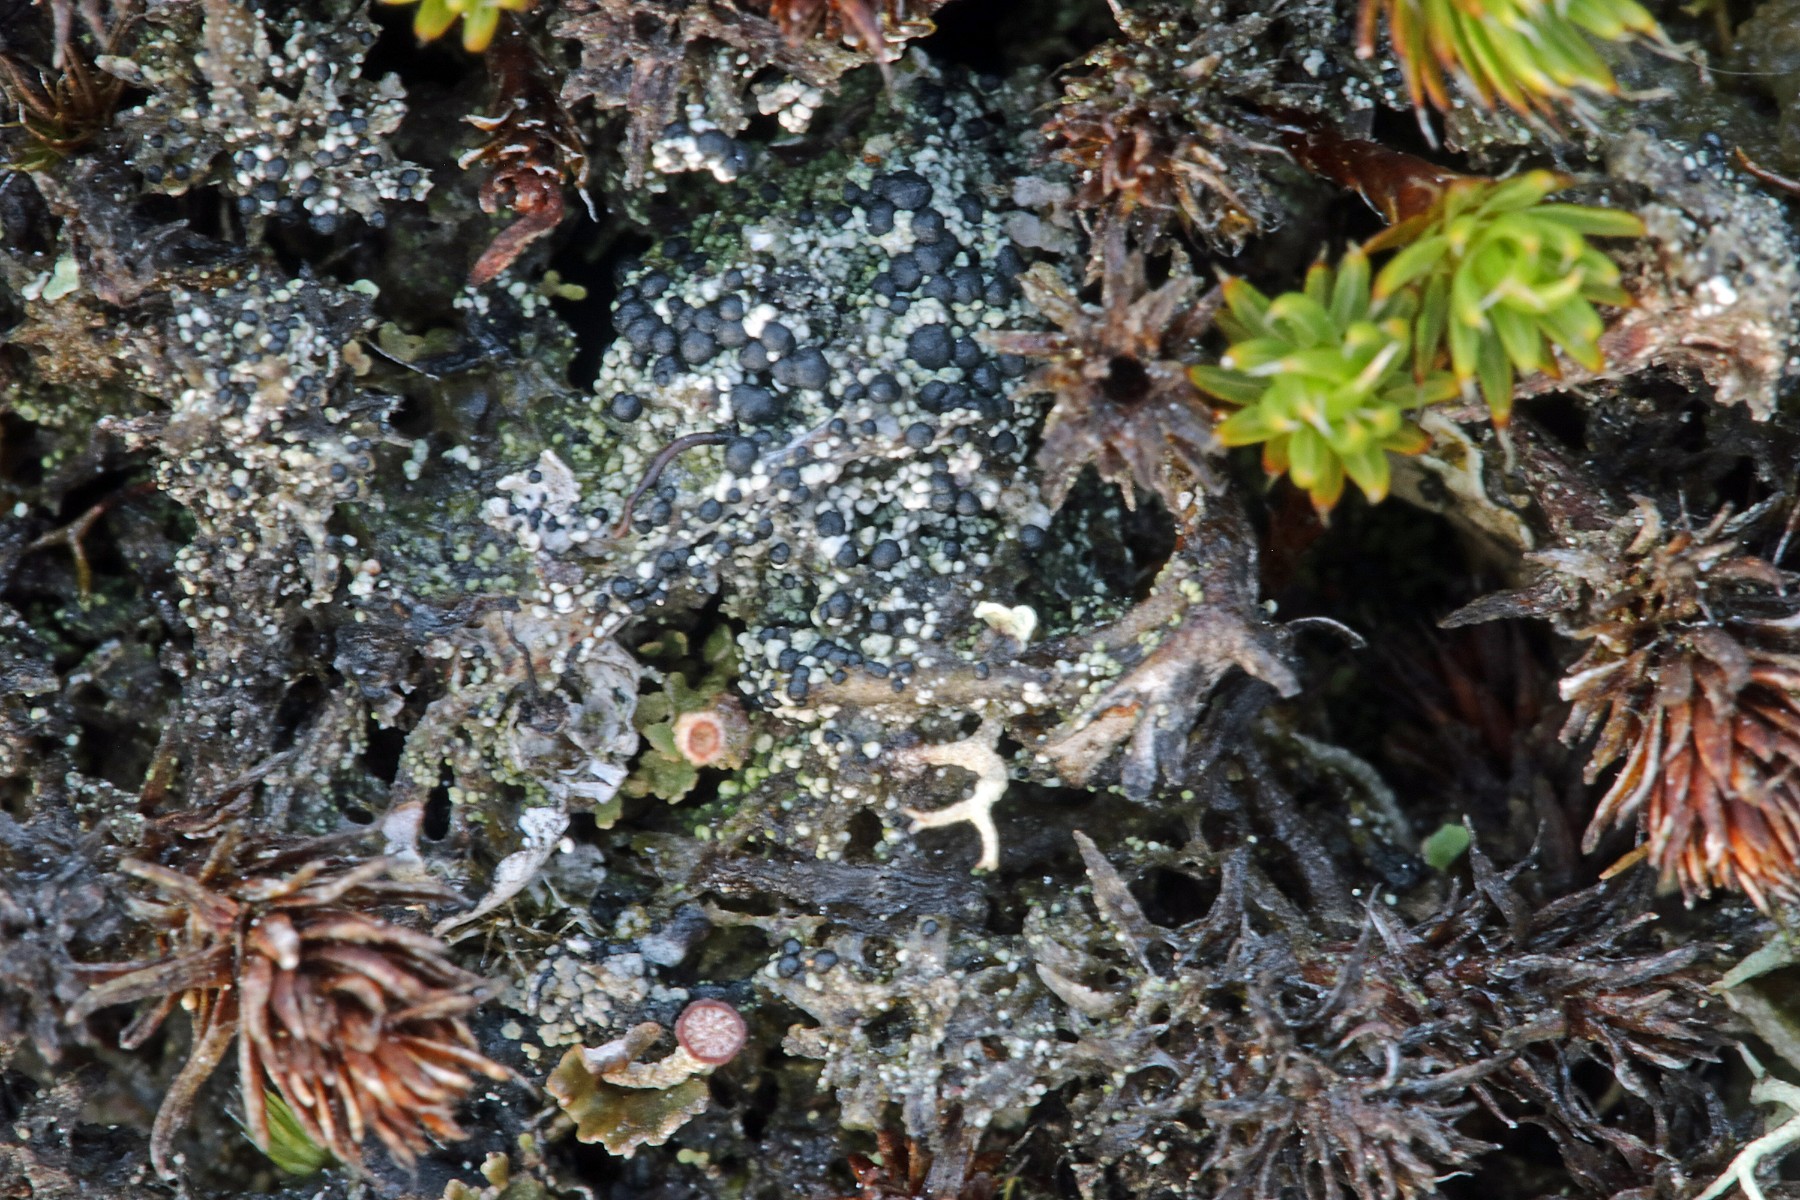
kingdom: Fungi
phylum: Ascomycota
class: Lecanoromycetes
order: Lecanorales
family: Byssolomataceae
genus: Micarea
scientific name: Micarea lignaria
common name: tørve-knaplav
